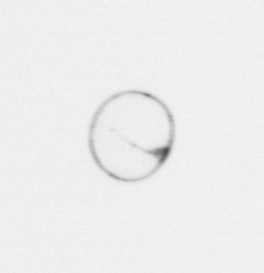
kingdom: Chromista
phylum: Myzozoa
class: Dinophyceae
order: Noctilucales
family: Noctilucaceae
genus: Noctiluca
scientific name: Noctiluca scintillans
